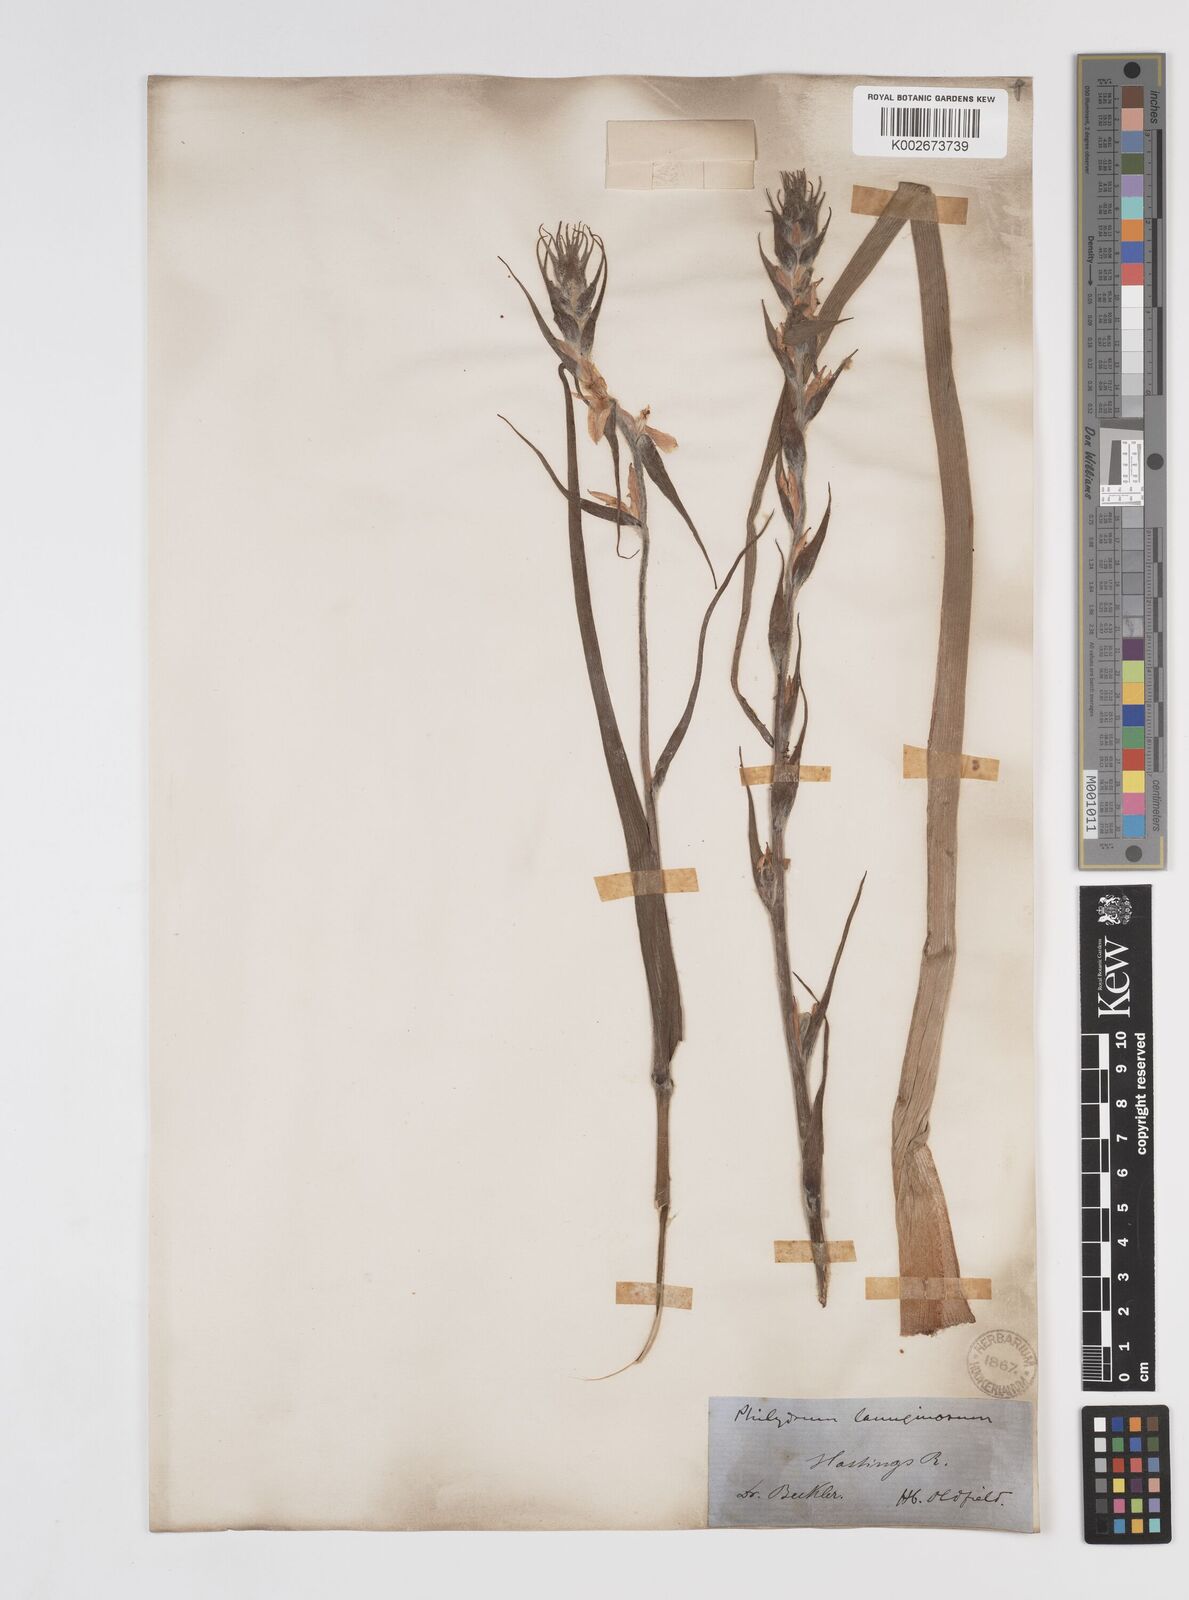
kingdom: Plantae
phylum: Tracheophyta
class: Liliopsida
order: Commelinales
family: Philydraceae
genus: Philydrum
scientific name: Philydrum lanuginosum
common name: Woolly frog's mouth
